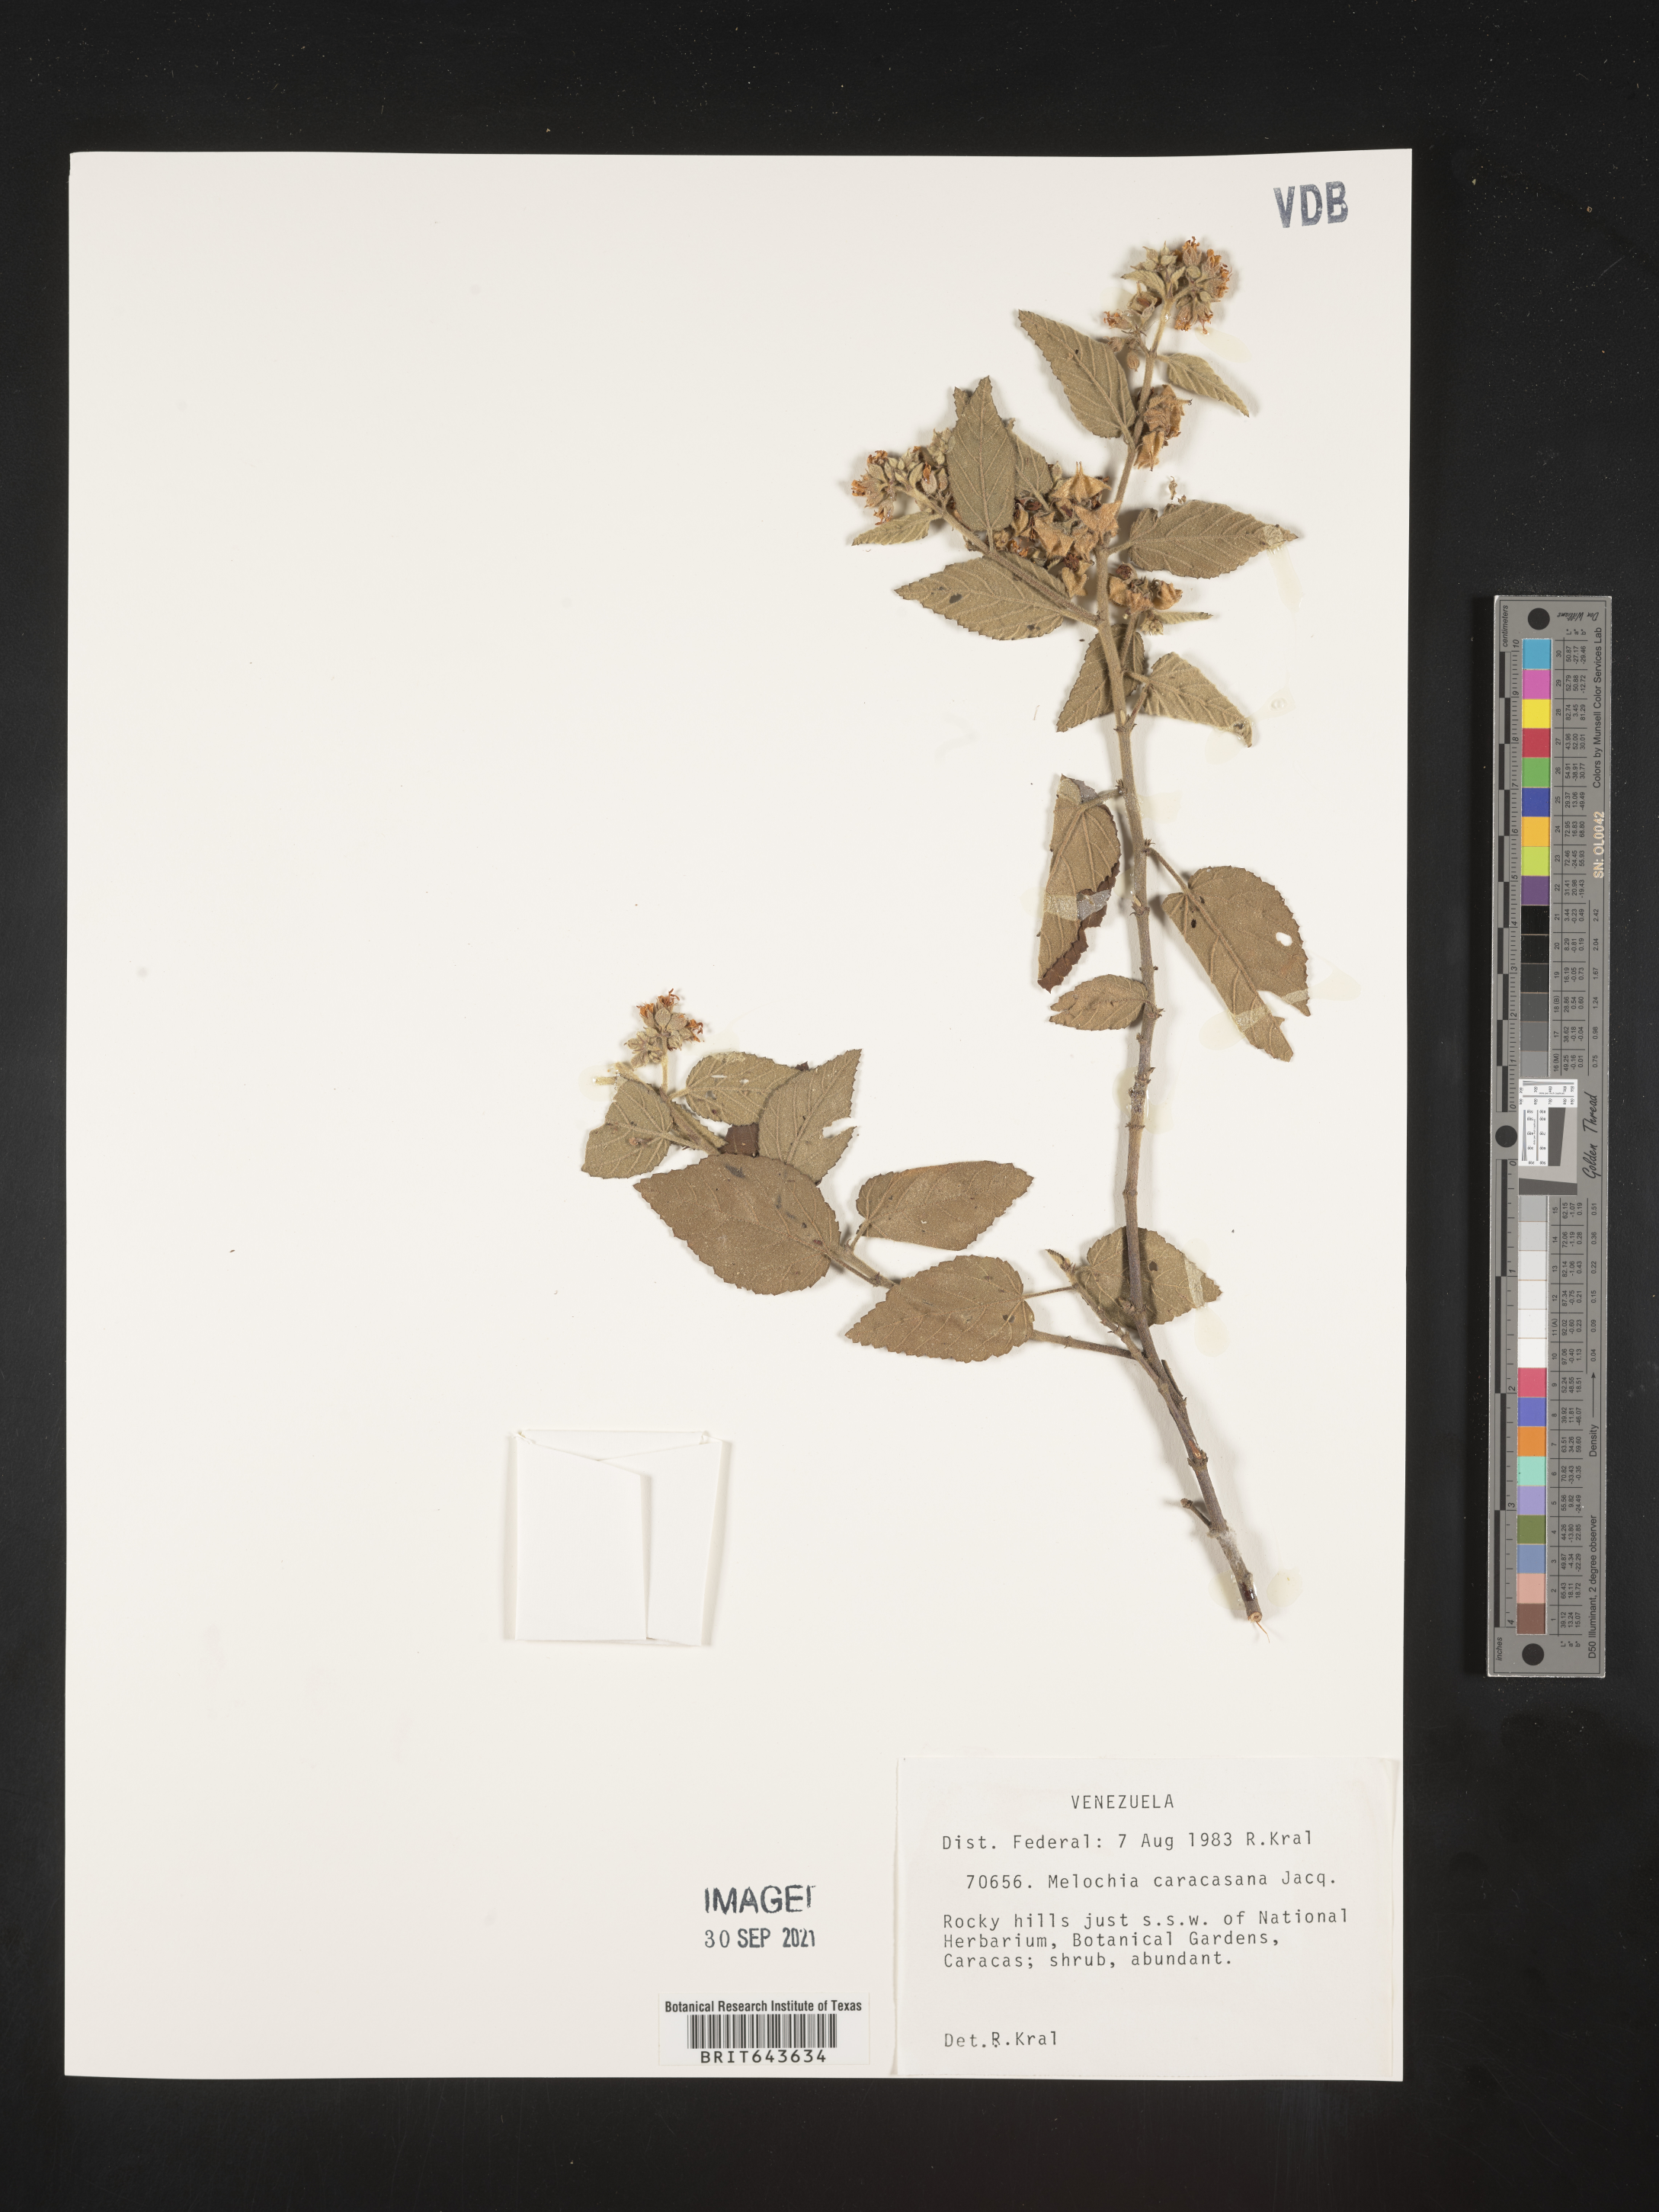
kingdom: Plantae
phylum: Tracheophyta
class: Magnoliopsida
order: Malvales
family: Malvaceae
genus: Melochia
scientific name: Melochia
